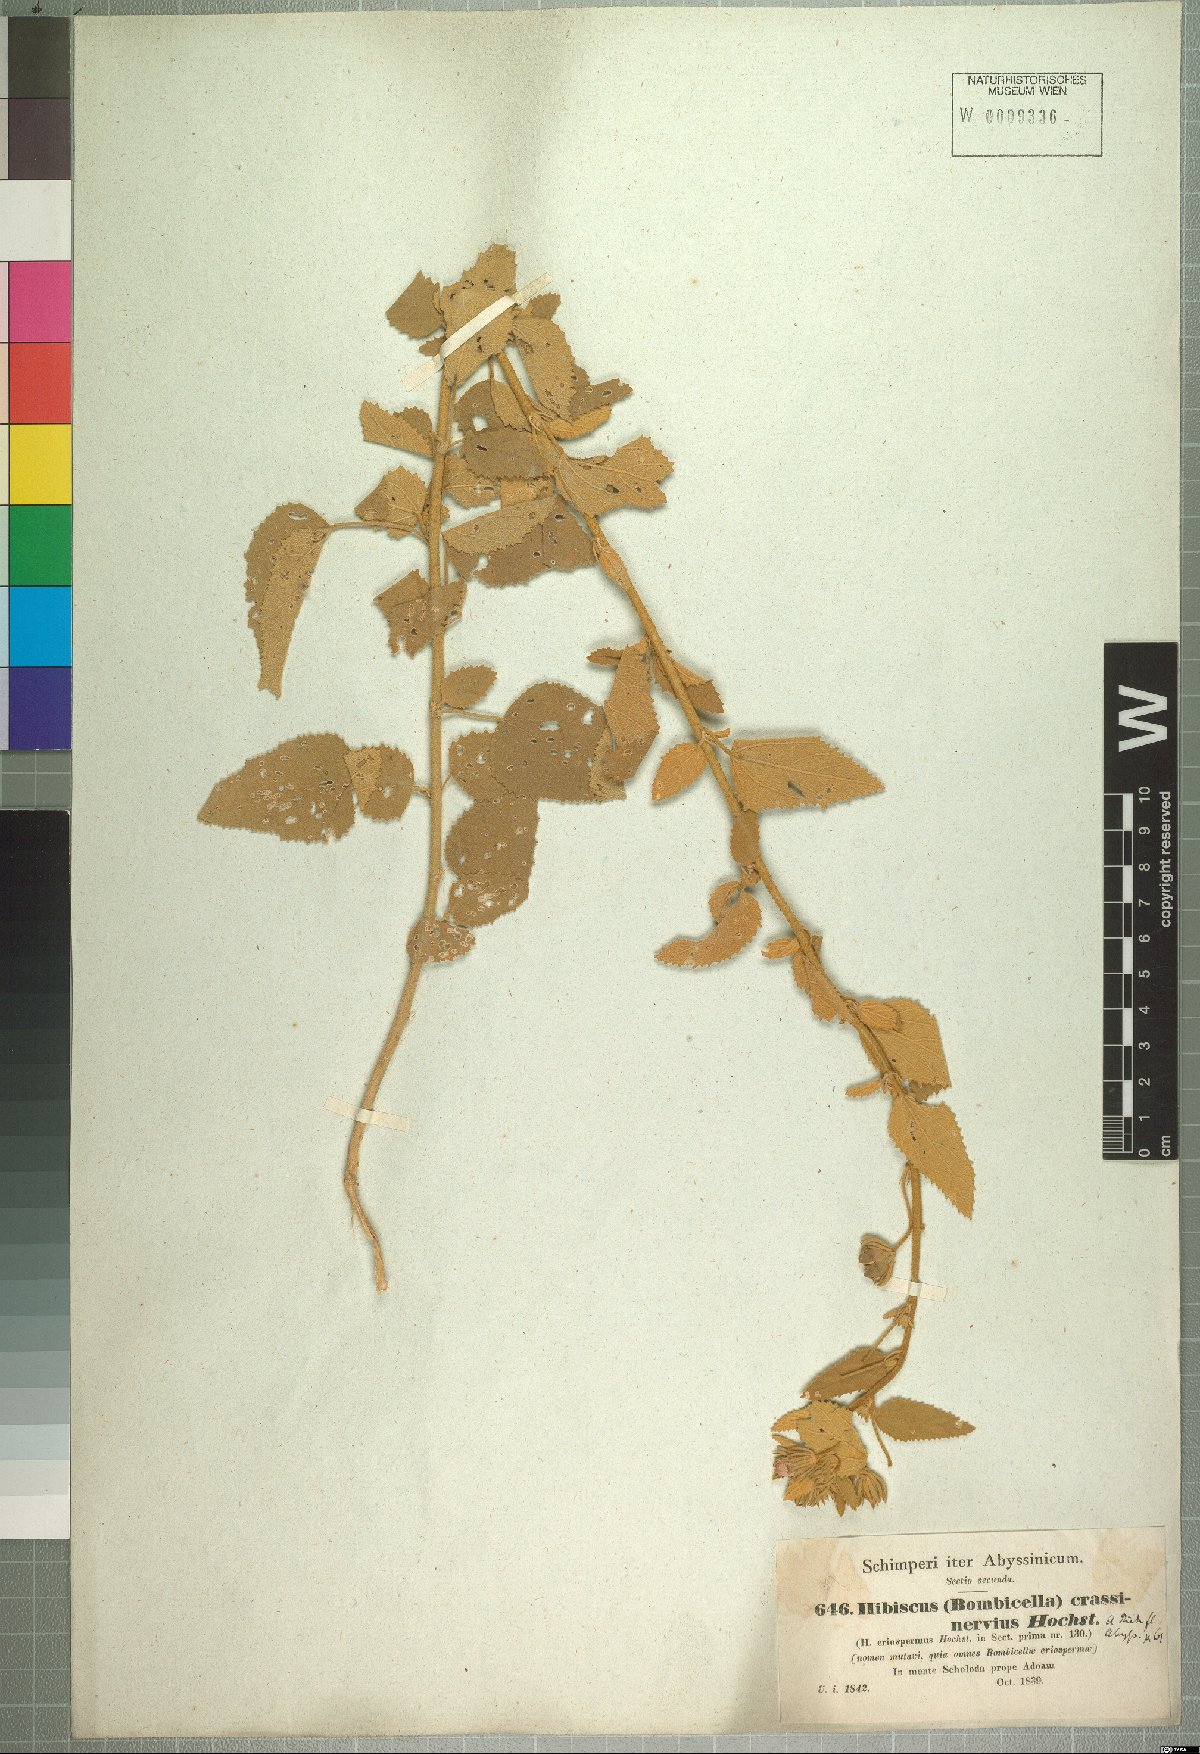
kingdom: Plantae
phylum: Tracheophyta
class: Magnoliopsida
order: Malvales
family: Malvaceae
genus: Hibiscus
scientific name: Hibiscus crassinervius
